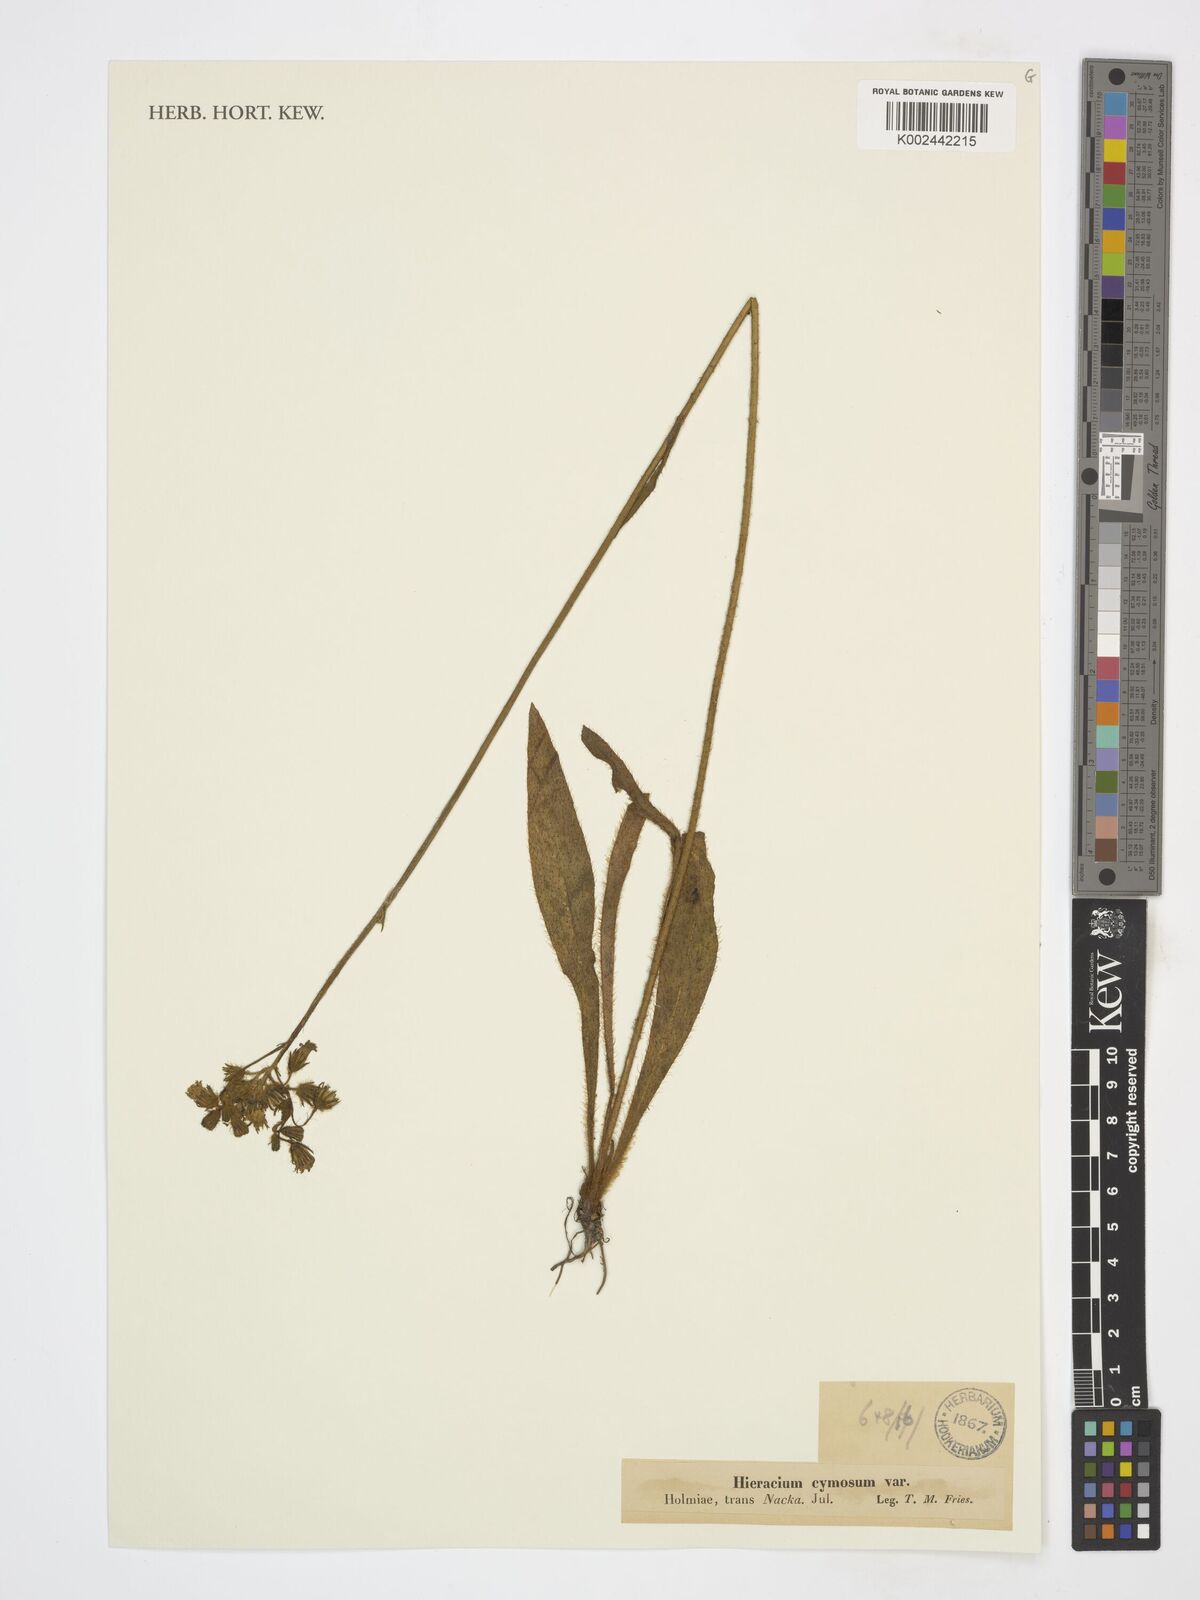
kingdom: Plantae
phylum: Tracheophyta
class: Magnoliopsida
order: Asterales
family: Asteraceae
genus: Pilosella
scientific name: Pilosella cymosa
